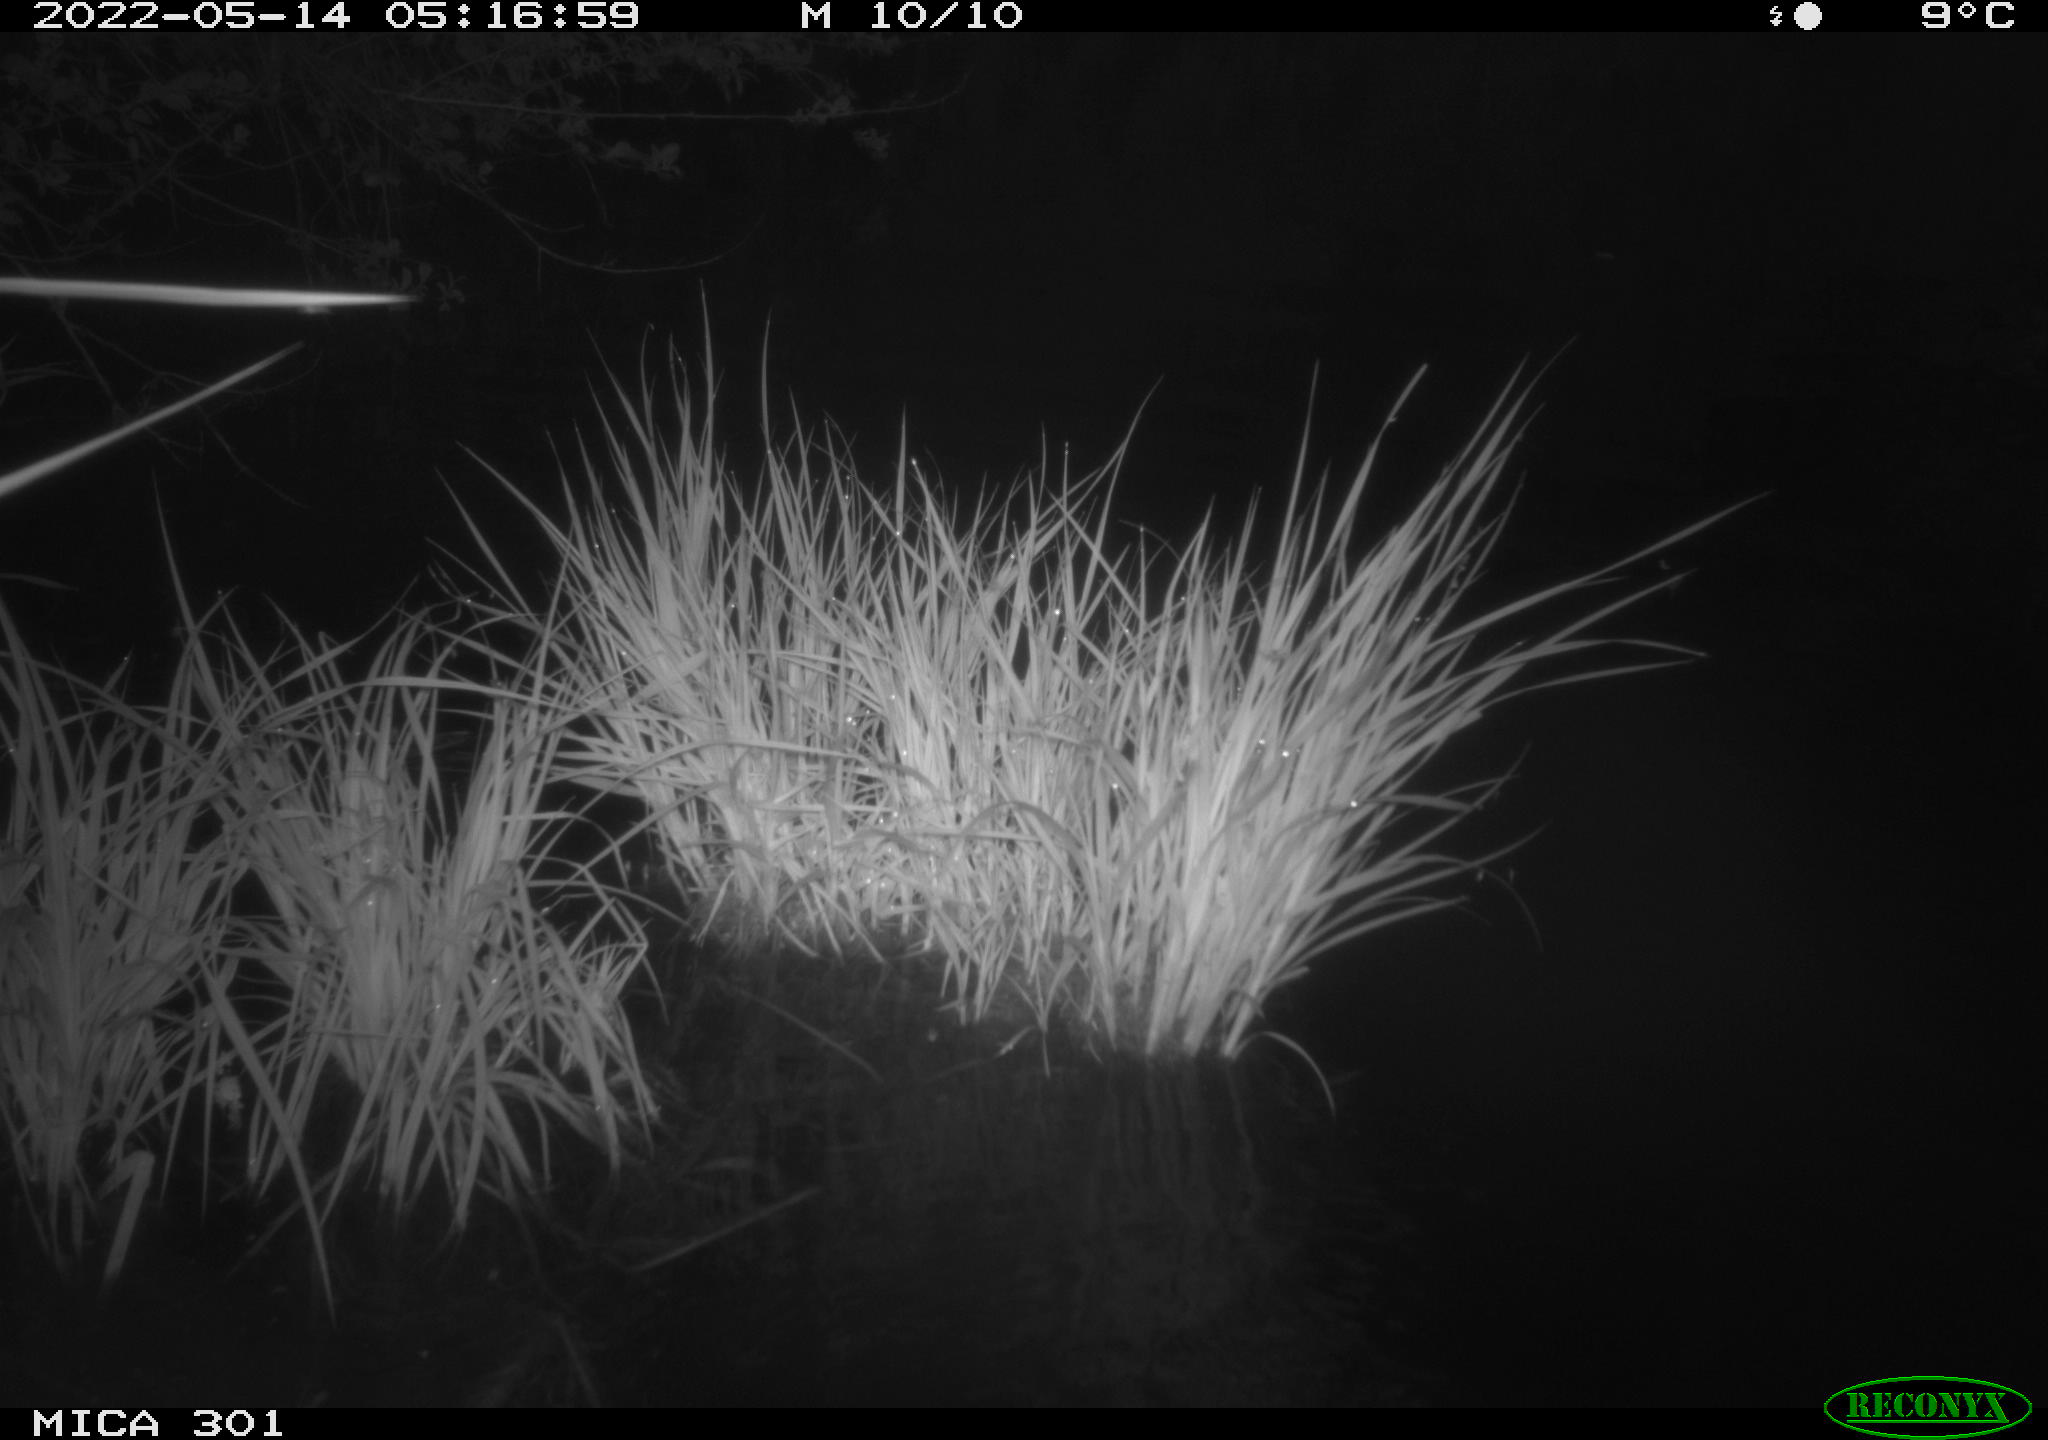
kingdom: Animalia
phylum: Chordata
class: Mammalia
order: Rodentia
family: Castoridae
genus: Castor
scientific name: Castor fiber
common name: Eurasian beaver
